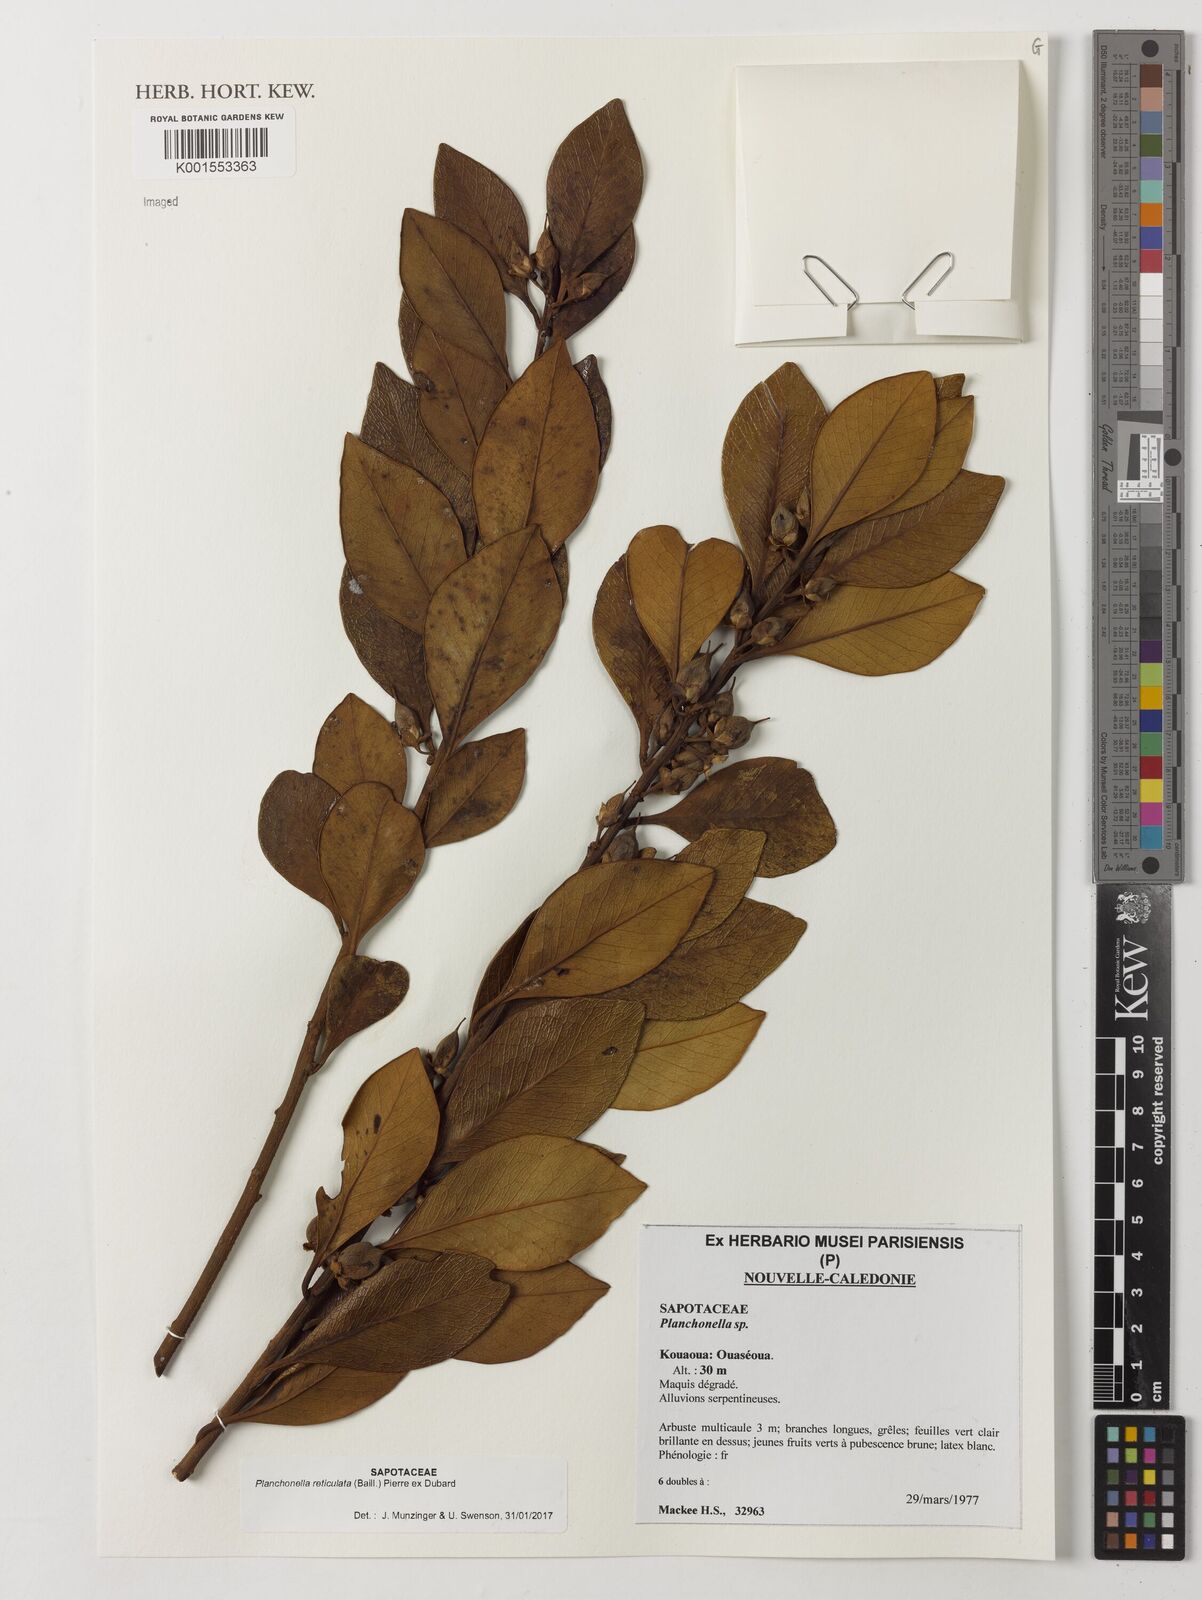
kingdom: Plantae
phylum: Tracheophyta
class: Magnoliopsida
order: Ericales
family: Sapotaceae
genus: Planchonella
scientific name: Planchonella reticulata
